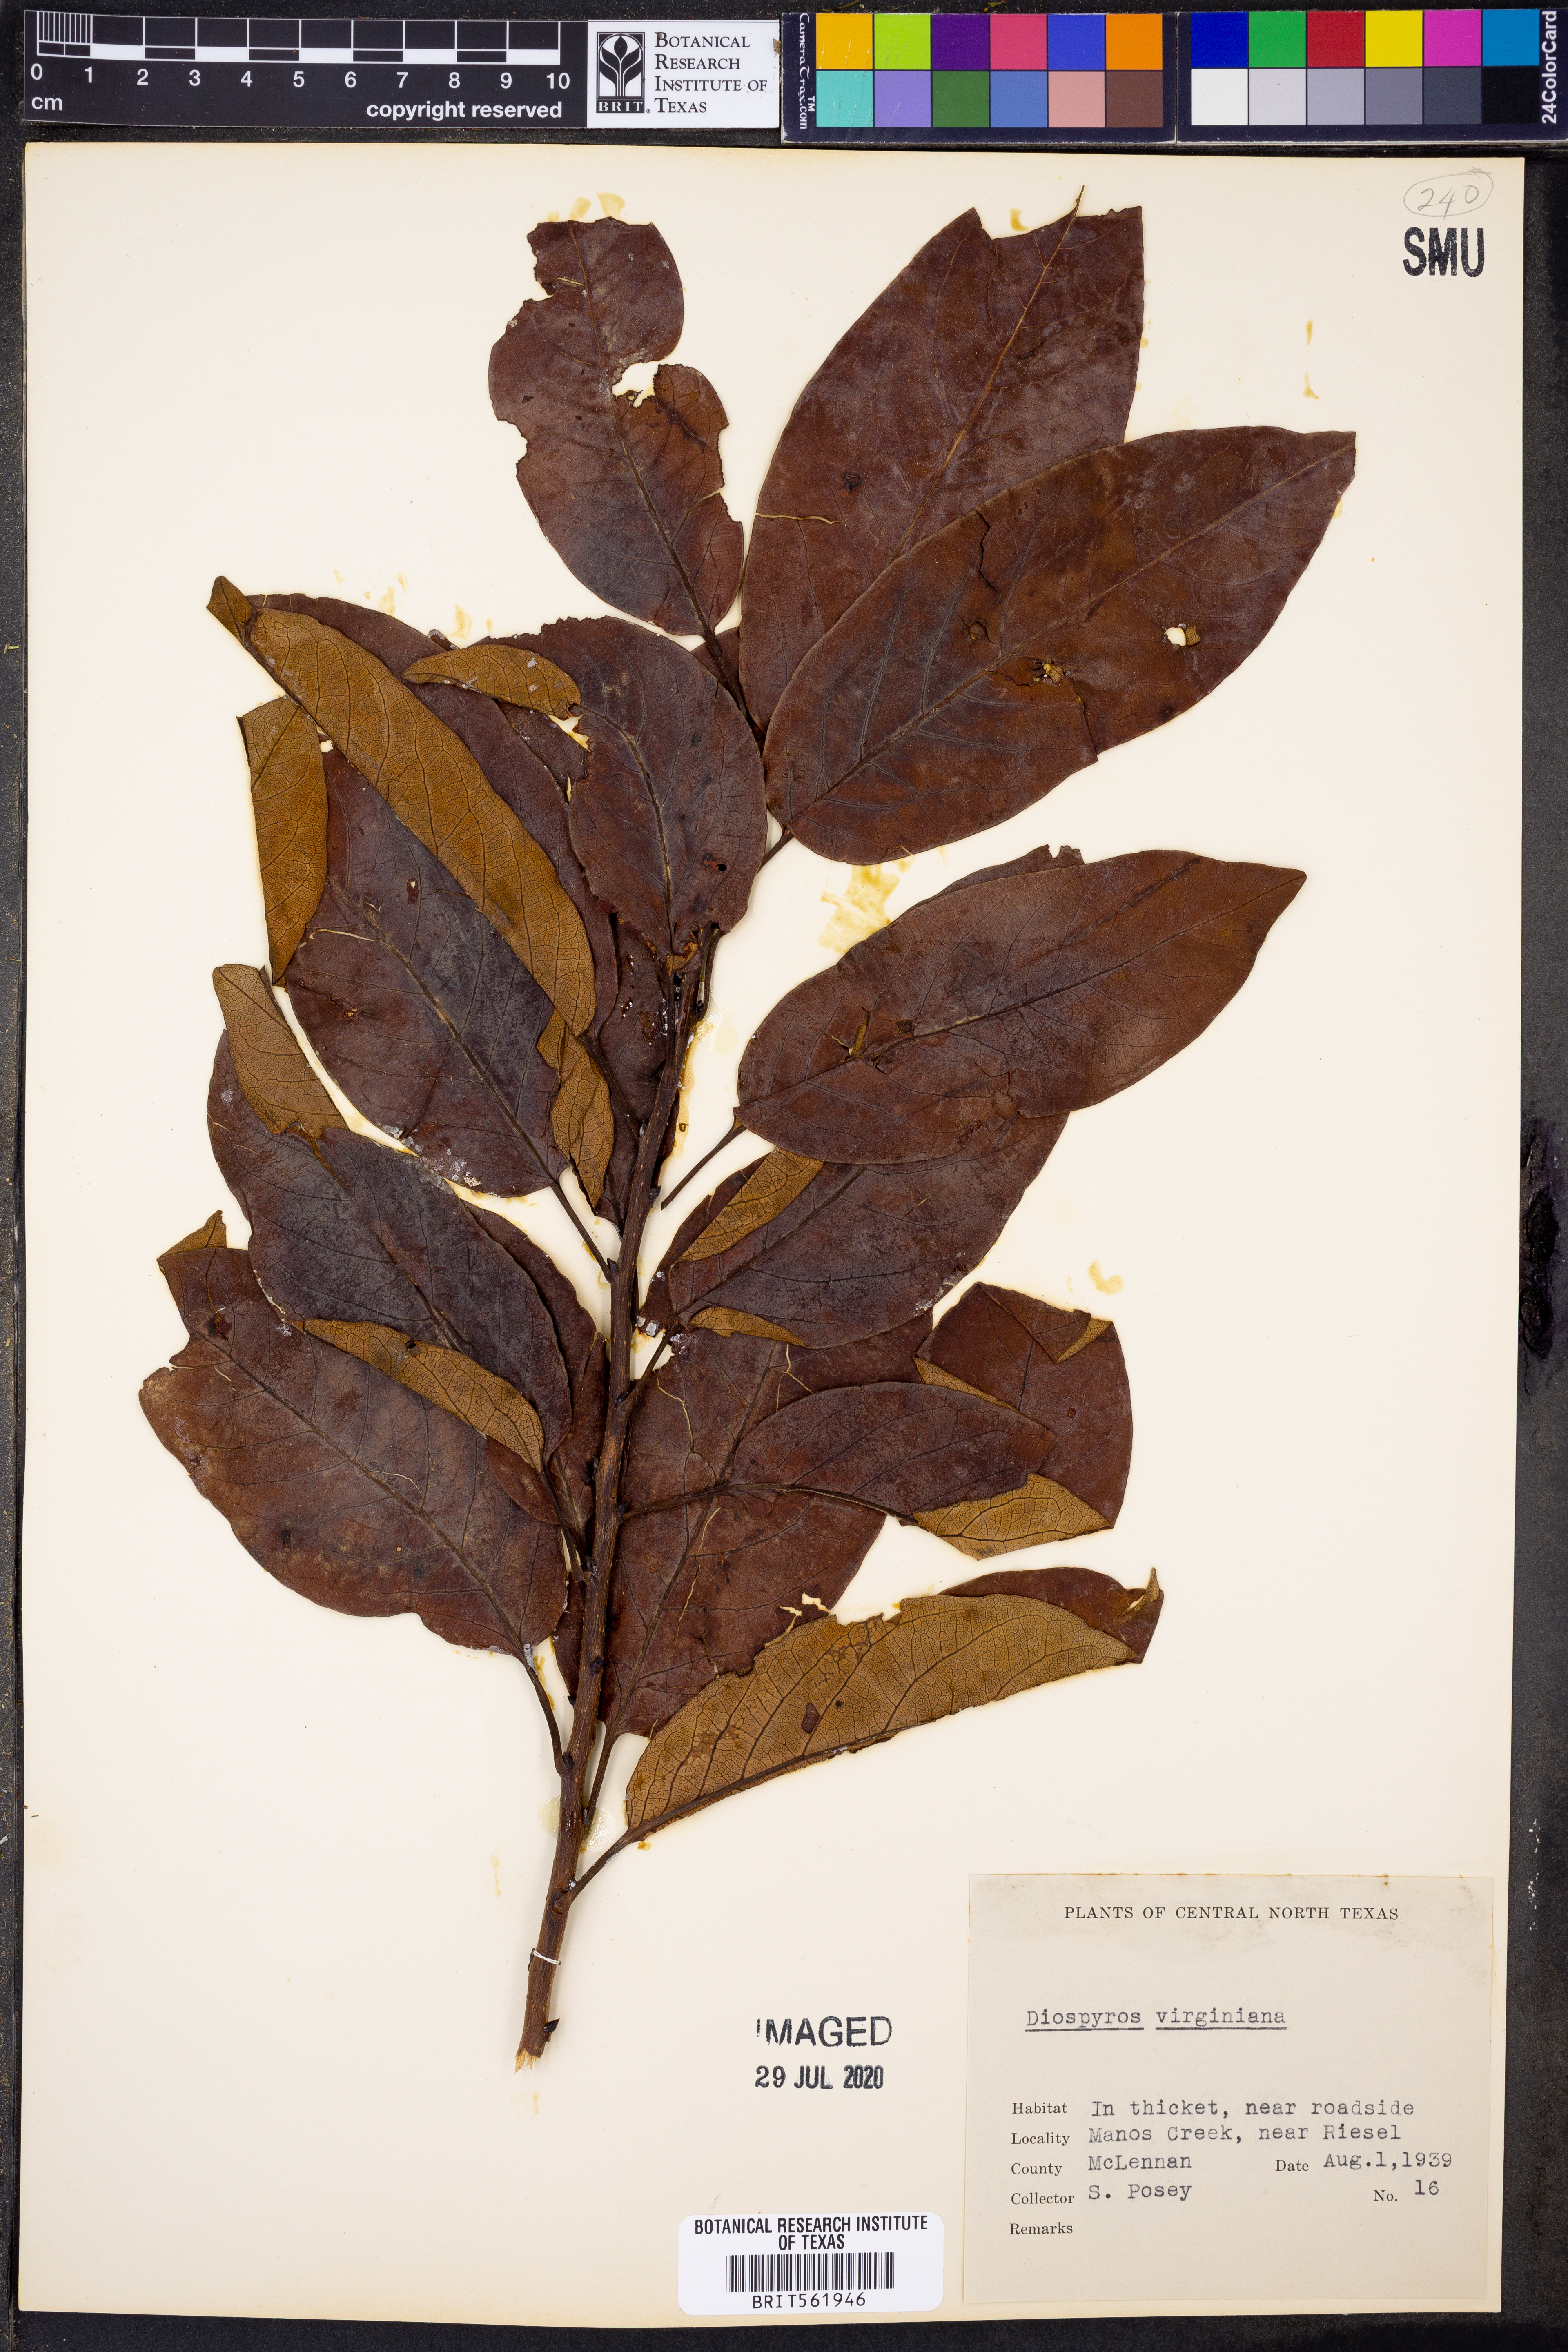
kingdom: Plantae
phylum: Tracheophyta
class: Magnoliopsida
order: Ericales
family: Ebenaceae
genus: Diospyros
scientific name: Diospyros virginiana
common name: Persimmon
